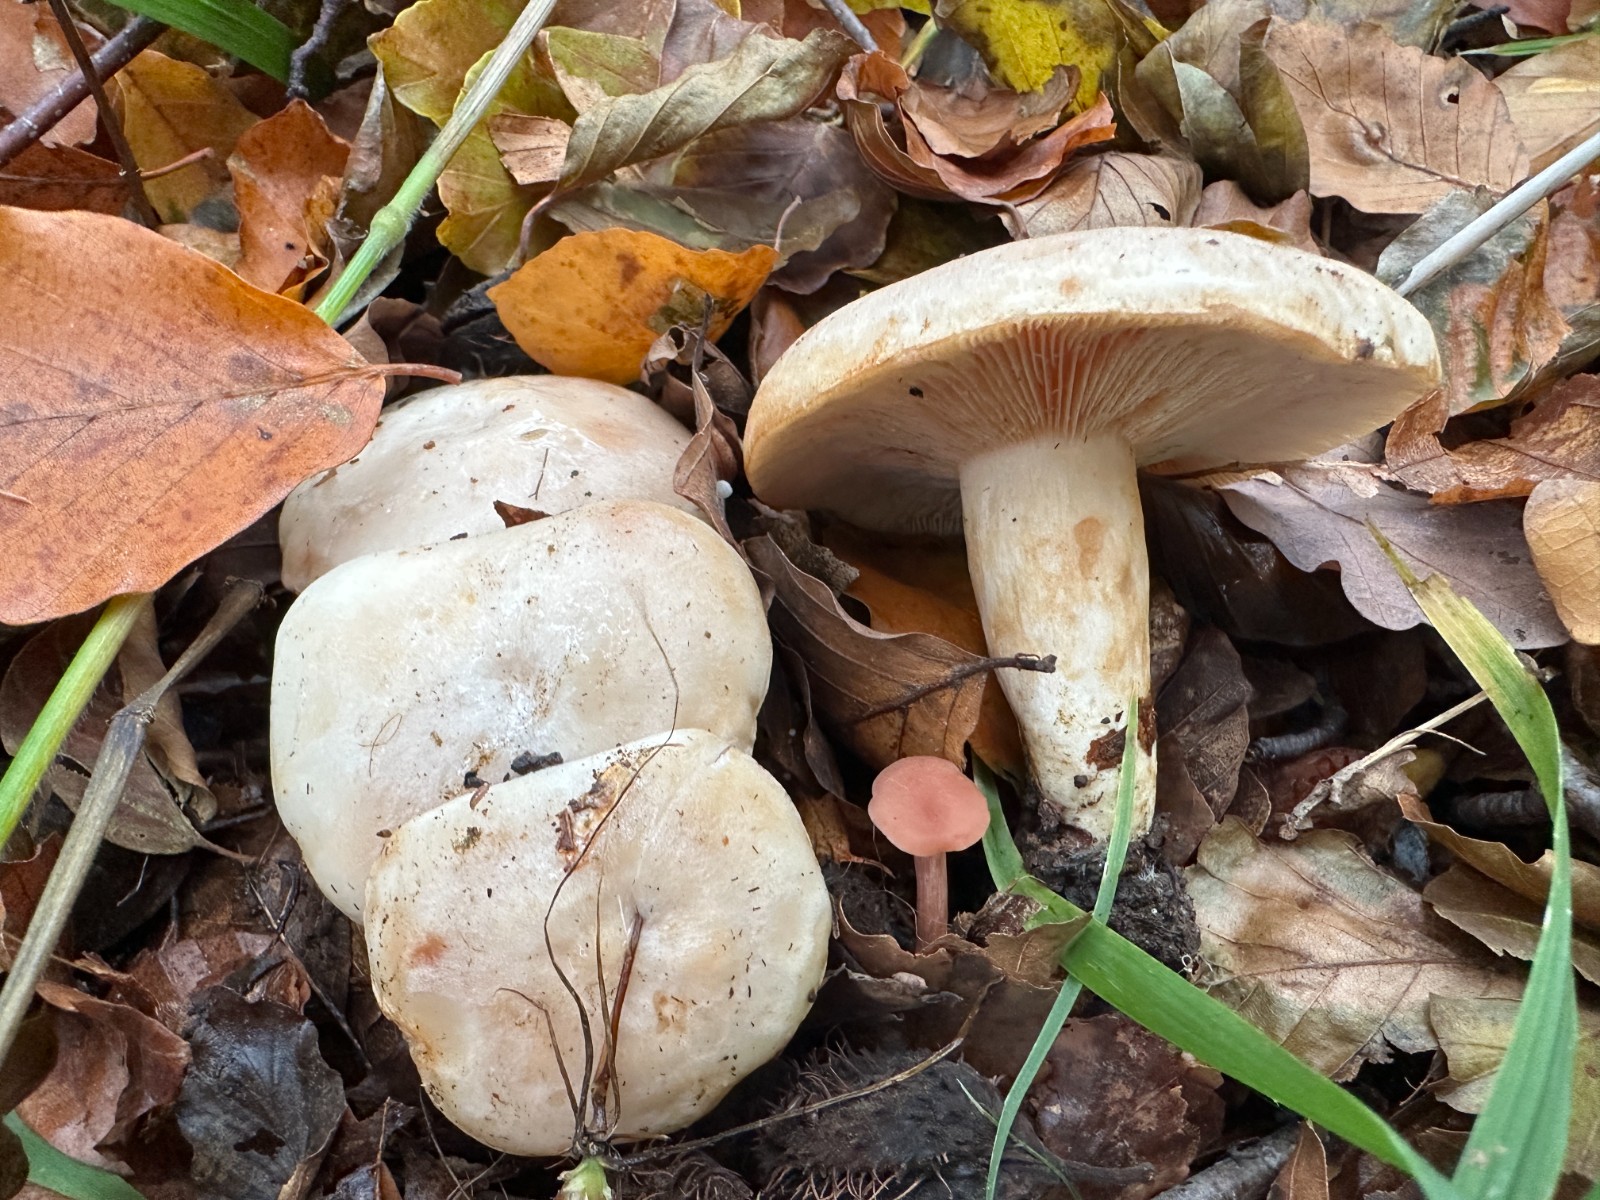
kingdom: Fungi
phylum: Basidiomycota
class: Agaricomycetes
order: Russulales
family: Russulaceae
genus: Lactarius
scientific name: Lactarius pallidus
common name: bleg mælkehat
